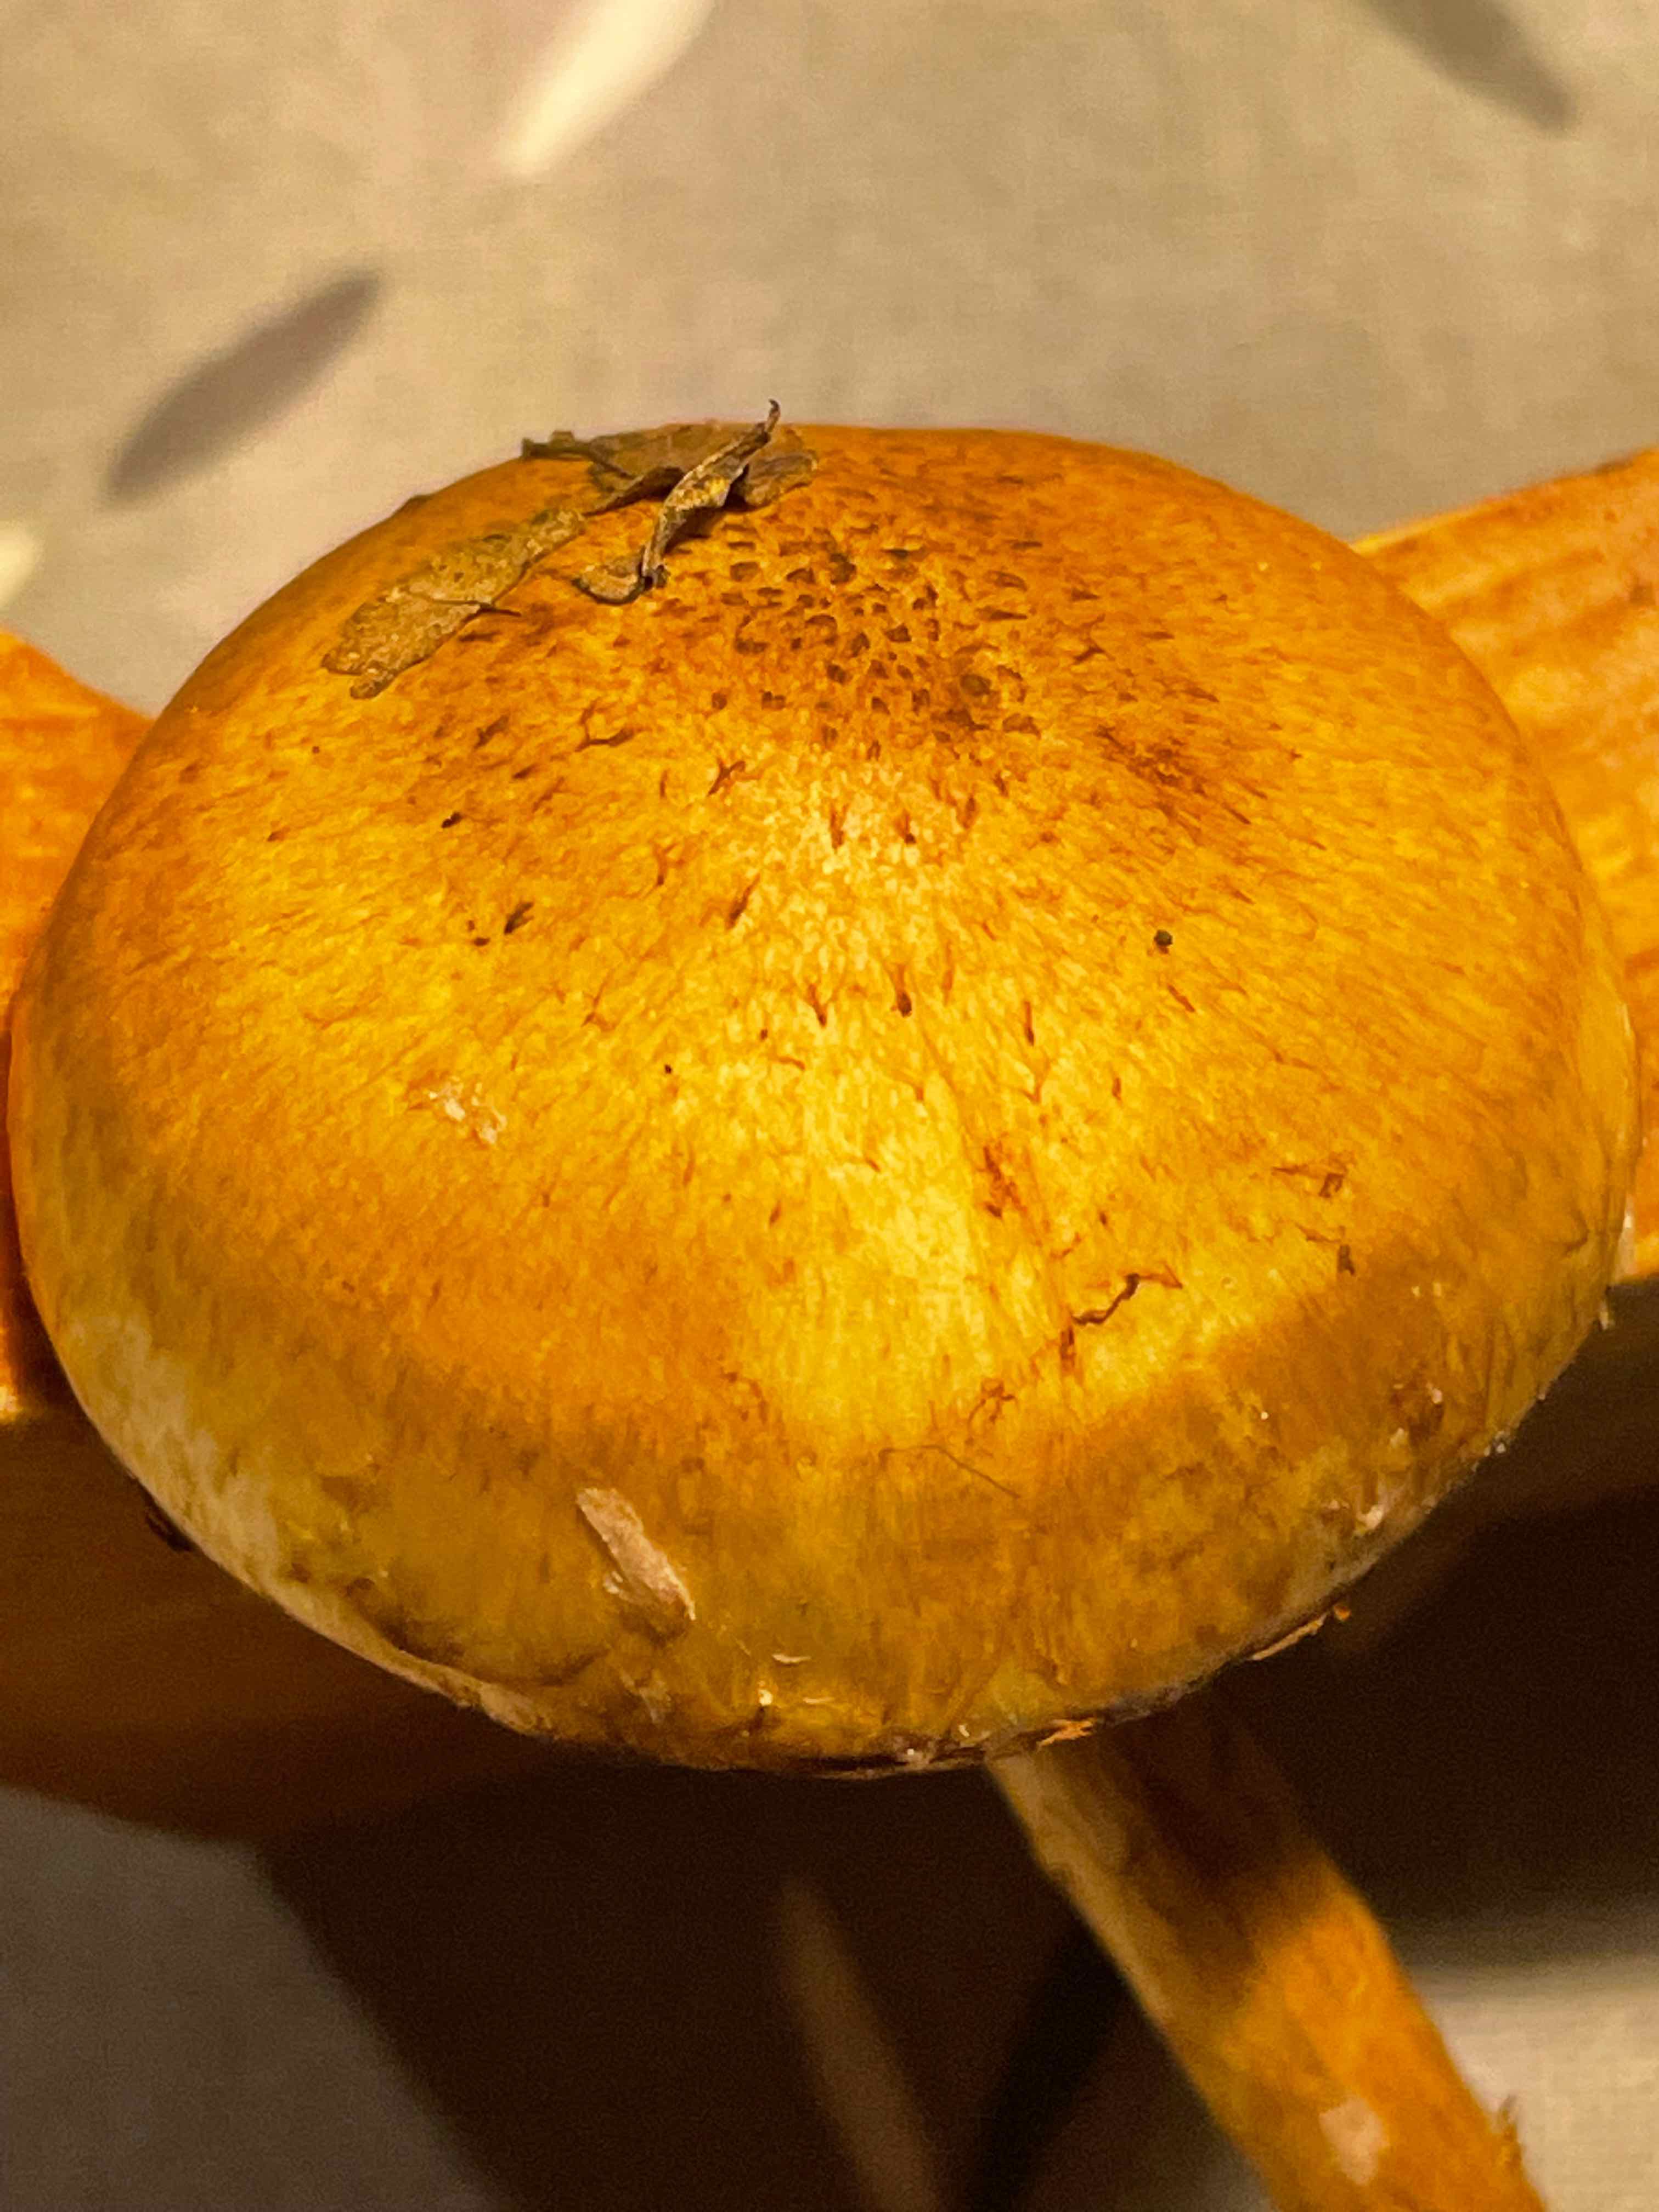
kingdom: Fungi
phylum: Basidiomycota
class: Agaricomycetes
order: Agaricales
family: Strophariaceae
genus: Pholiota
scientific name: Pholiota gummosa
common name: grøngul skælhat
